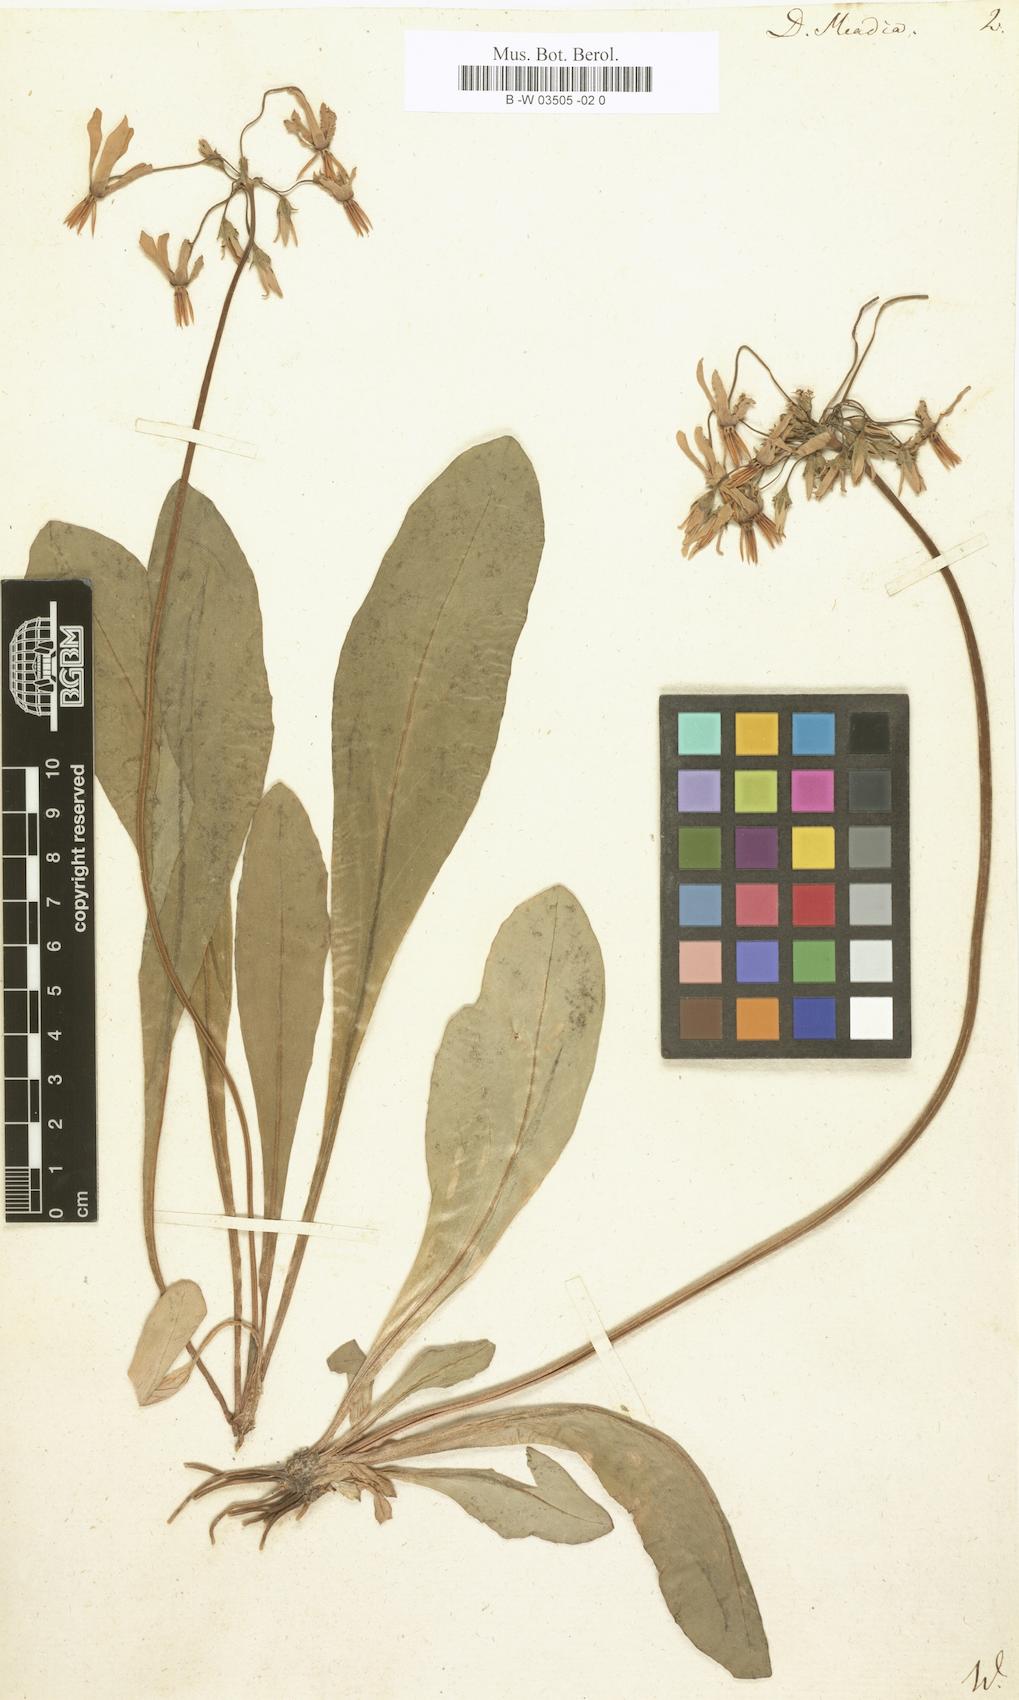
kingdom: Plantae
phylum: Tracheophyta
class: Magnoliopsida
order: Ericales
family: Primulaceae
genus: Dodecatheon
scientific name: Dodecatheon meadia
